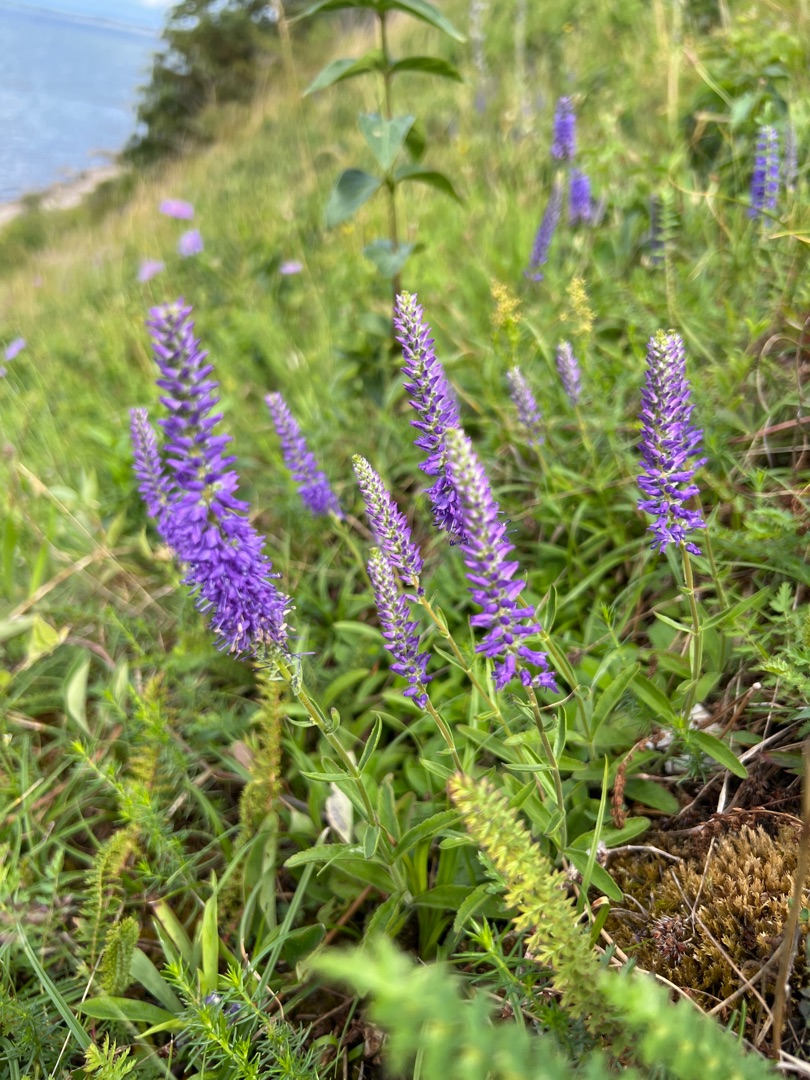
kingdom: Plantae
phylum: Tracheophyta
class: Magnoliopsida
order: Lamiales
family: Plantaginaceae
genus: Veronica
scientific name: Veronica spicata
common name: Aks-ærenpris
